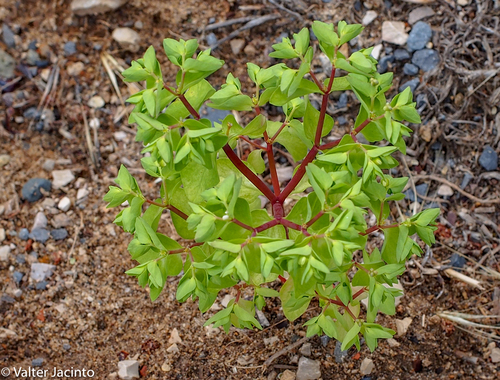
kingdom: Plantae
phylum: Tracheophyta
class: Magnoliopsida
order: Malpighiales
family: Euphorbiaceae
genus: Euphorbia
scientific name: Euphorbia peplus
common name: Petty spurge
